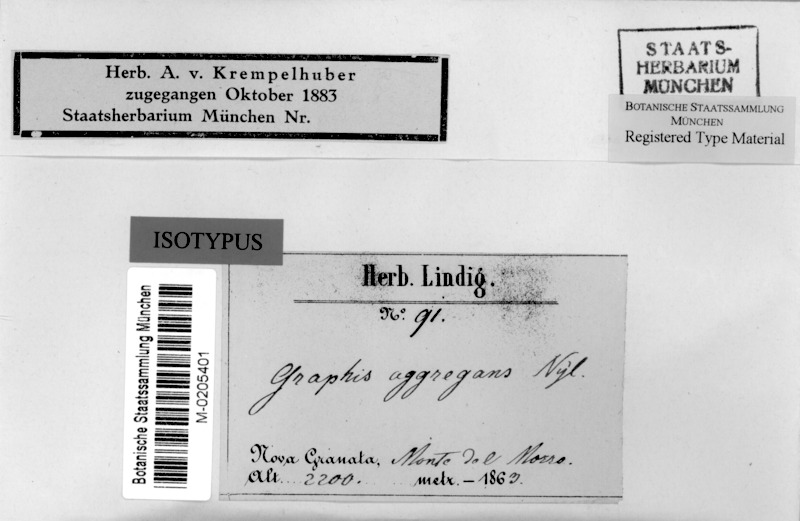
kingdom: Fungi
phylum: Ascomycota
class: Lecanoromycetes
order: Ostropales
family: Graphidaceae
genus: Anomomorpha
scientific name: Anomomorpha aggregans
